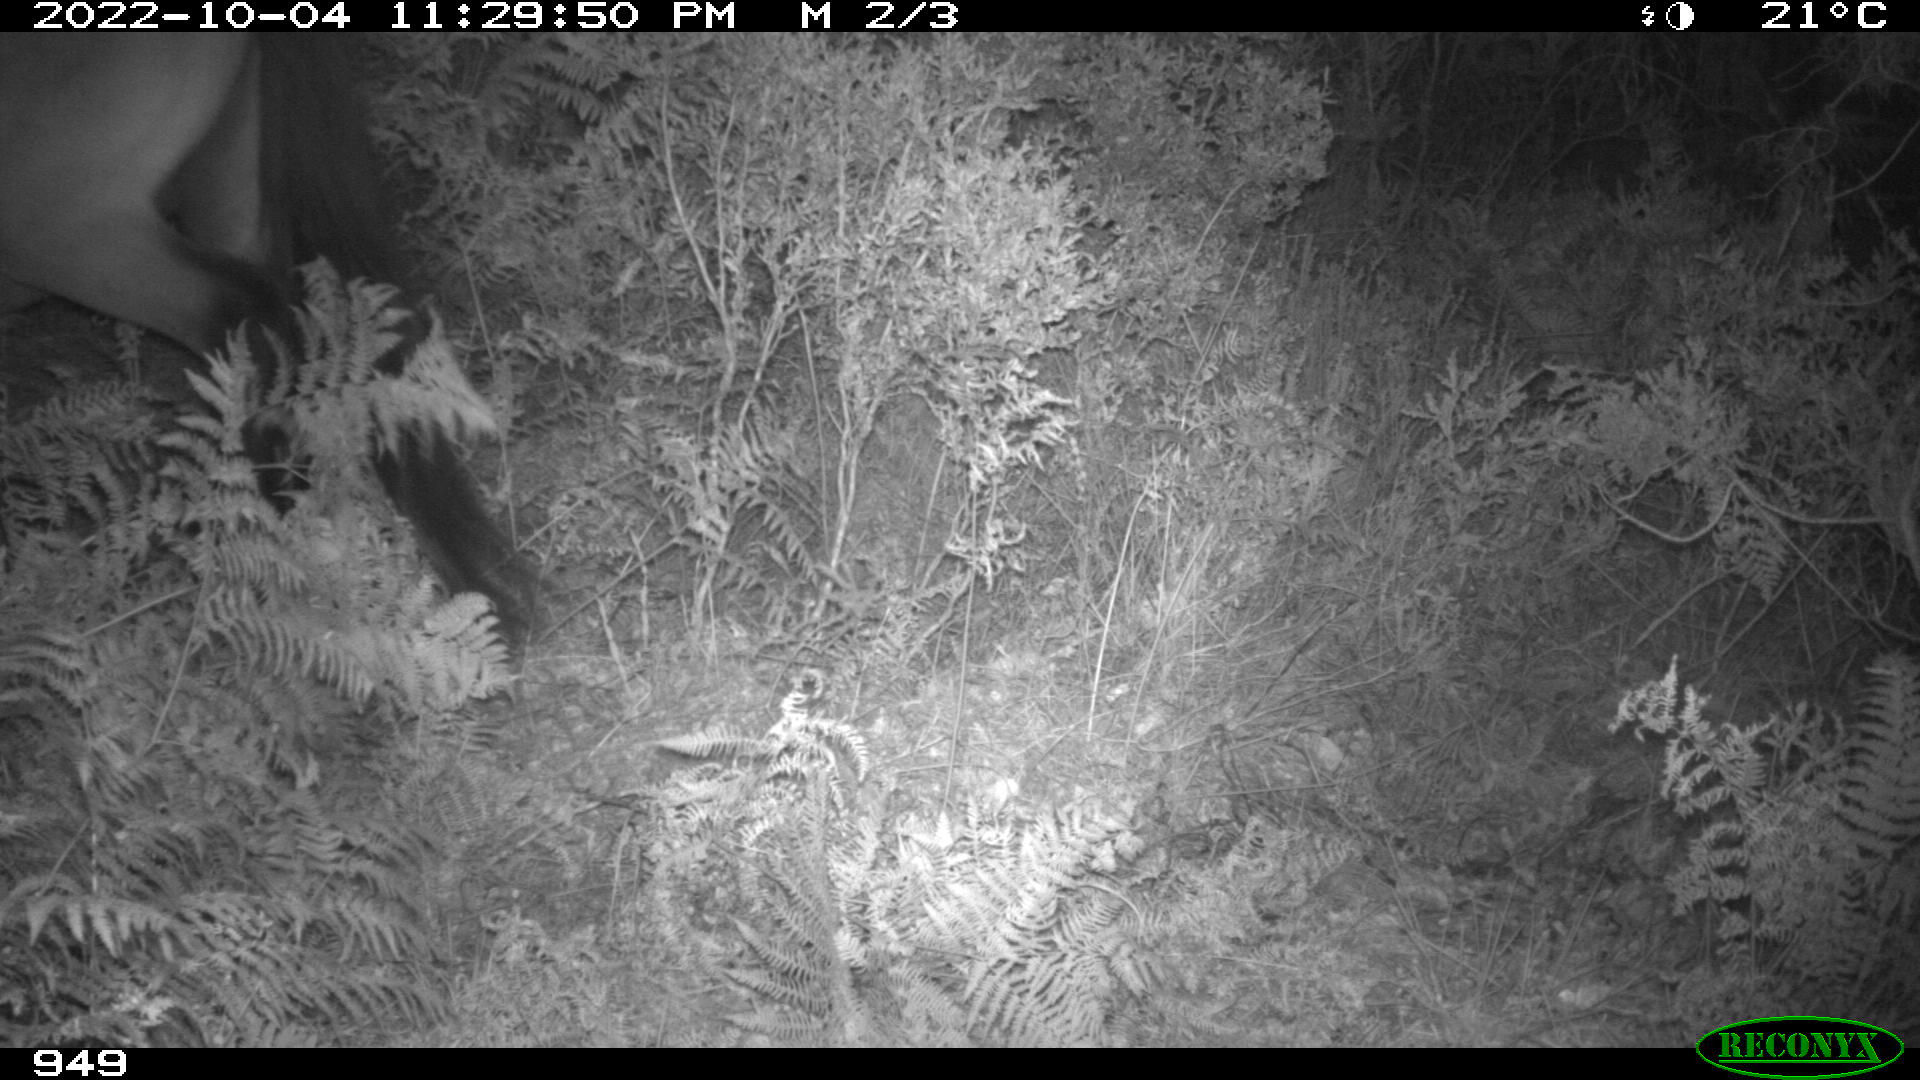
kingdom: Animalia
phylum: Chordata
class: Mammalia
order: Perissodactyla
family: Equidae
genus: Equus
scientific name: Equus caballus
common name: Horse
